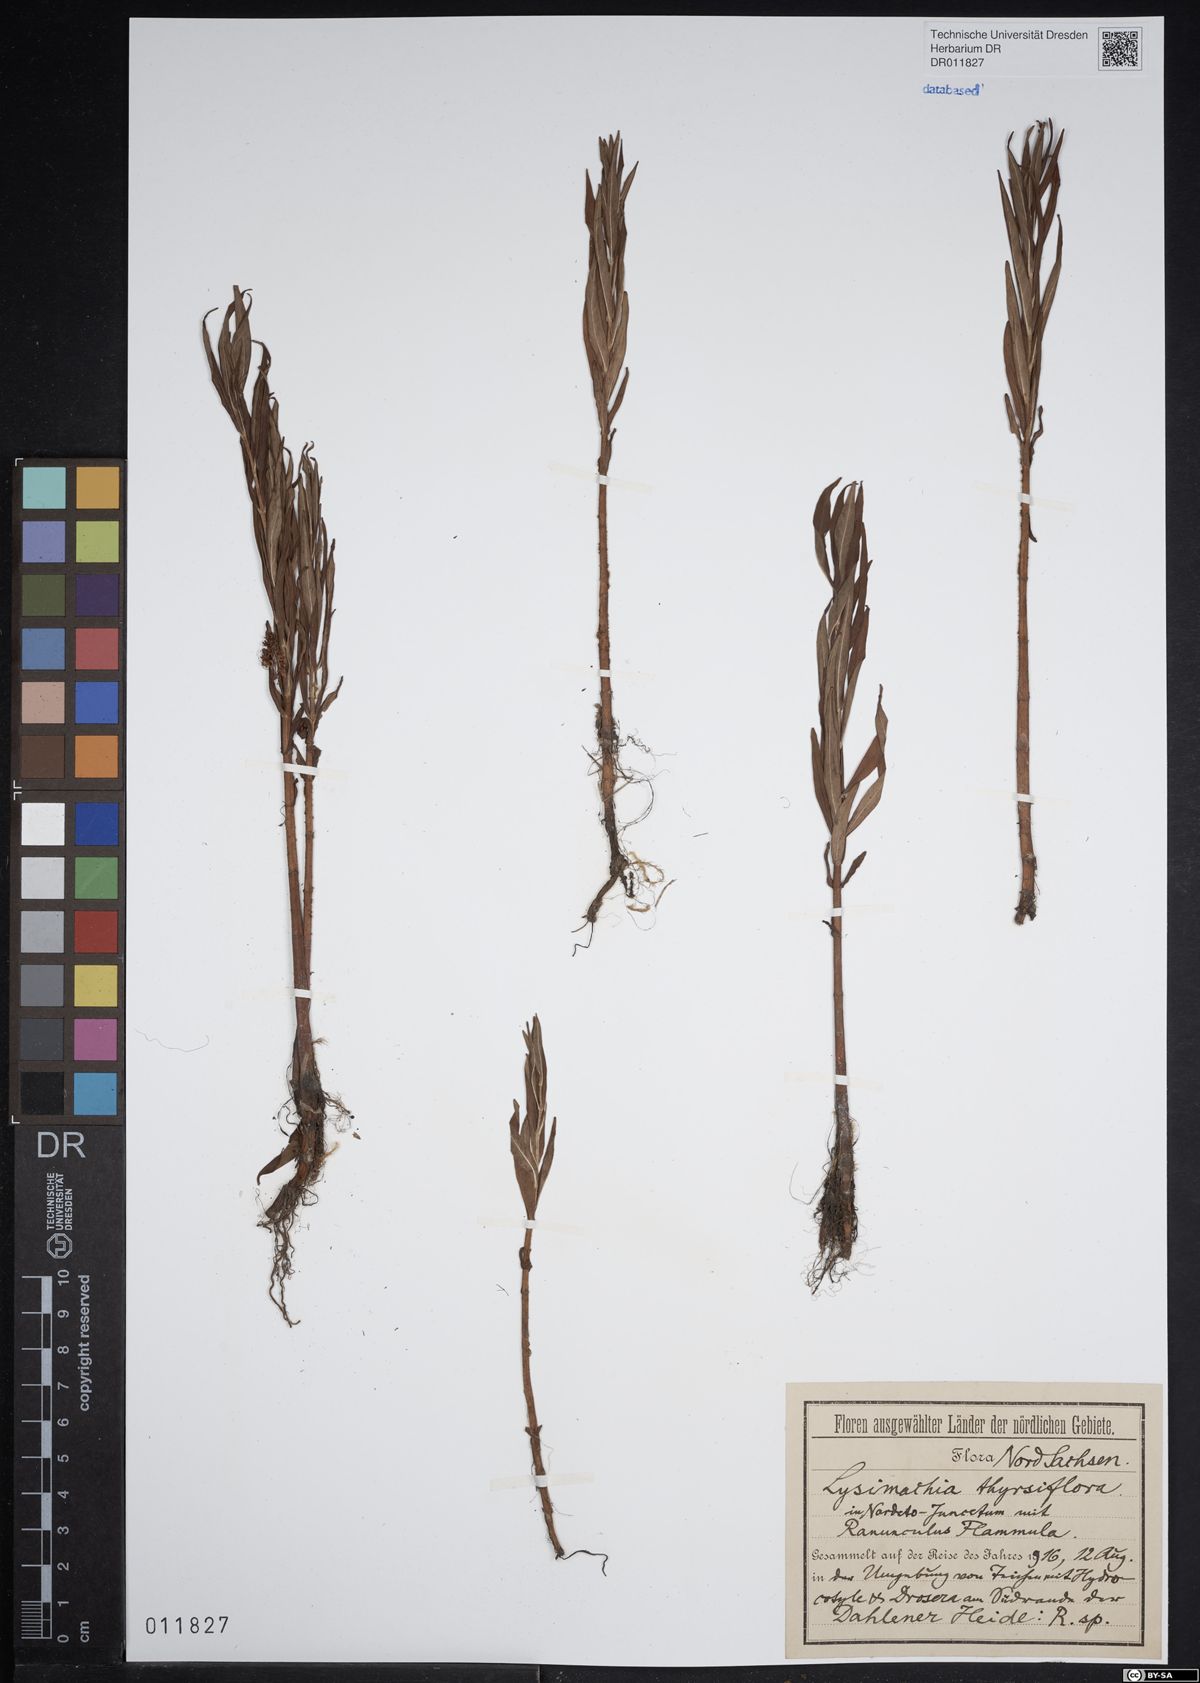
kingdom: Plantae
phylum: Tracheophyta
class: Magnoliopsida
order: Ericales
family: Primulaceae
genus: Lysimachia
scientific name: Lysimachia thyrsiflora
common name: Tufted loosestrife
